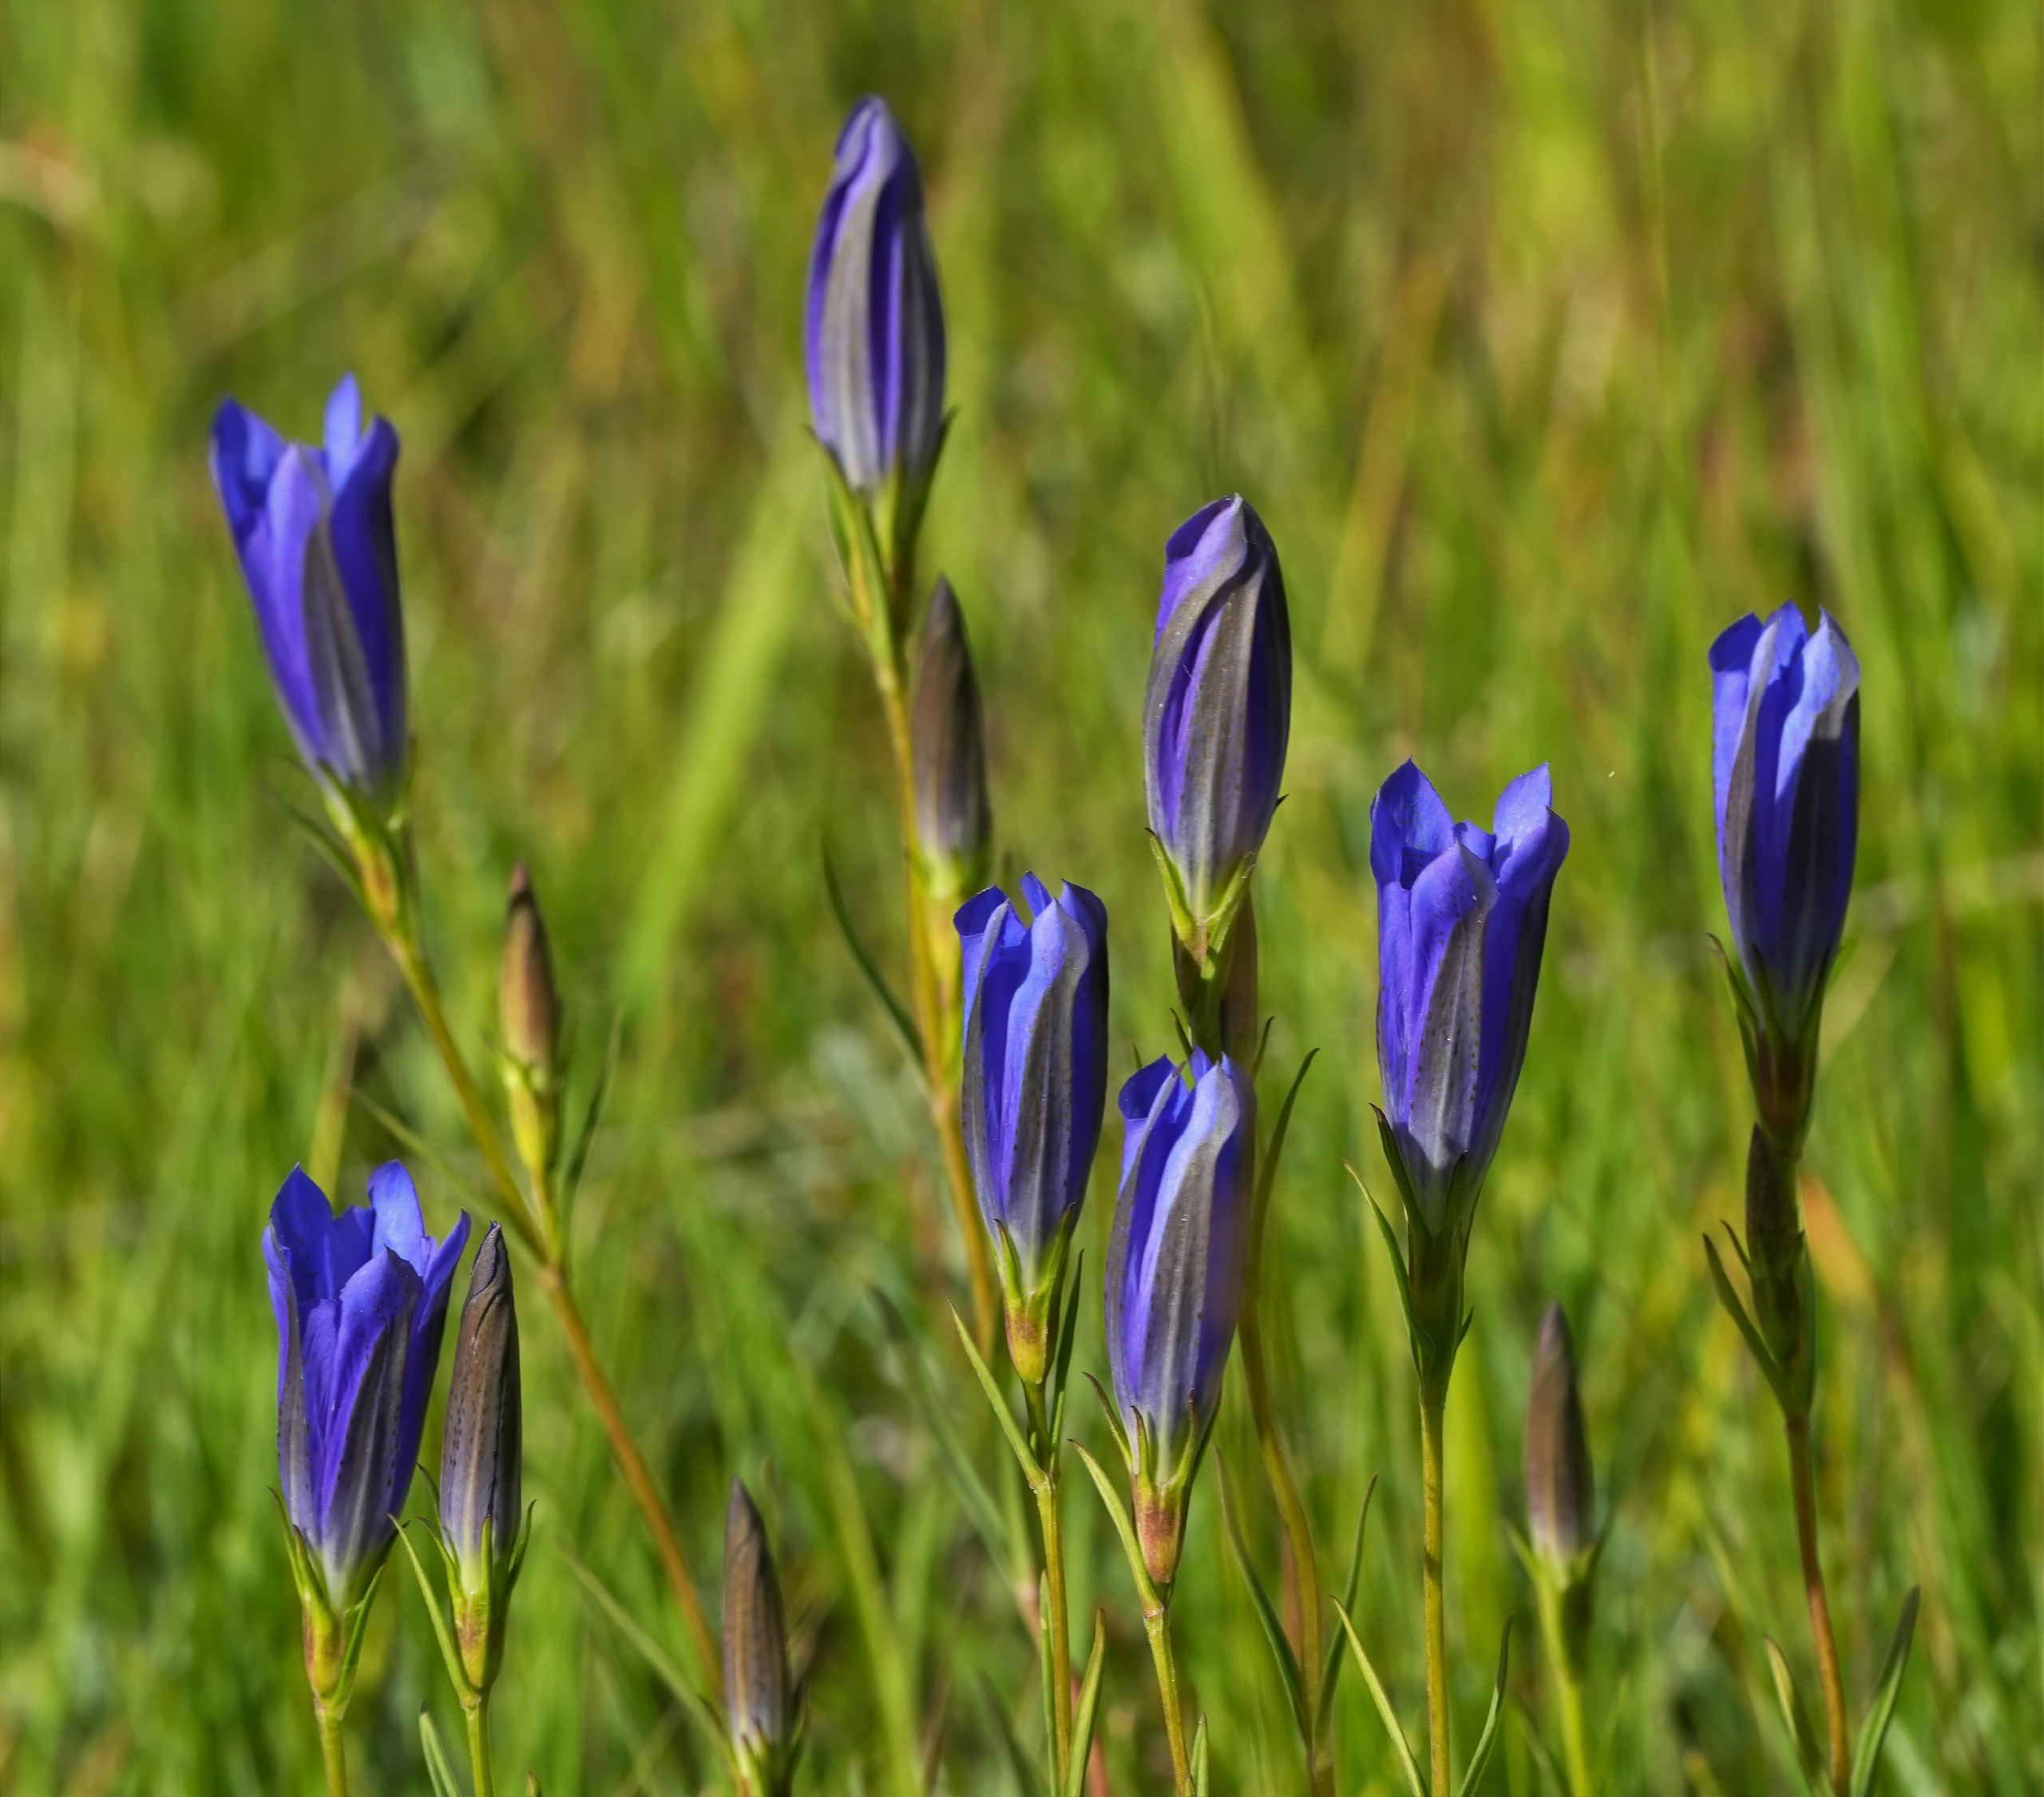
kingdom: Plantae
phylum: Tracheophyta
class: Magnoliopsida
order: Gentianales
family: Gentianaceae
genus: Gentiana
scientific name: Gentiana pneumonanthe
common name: Klokke-ensian
